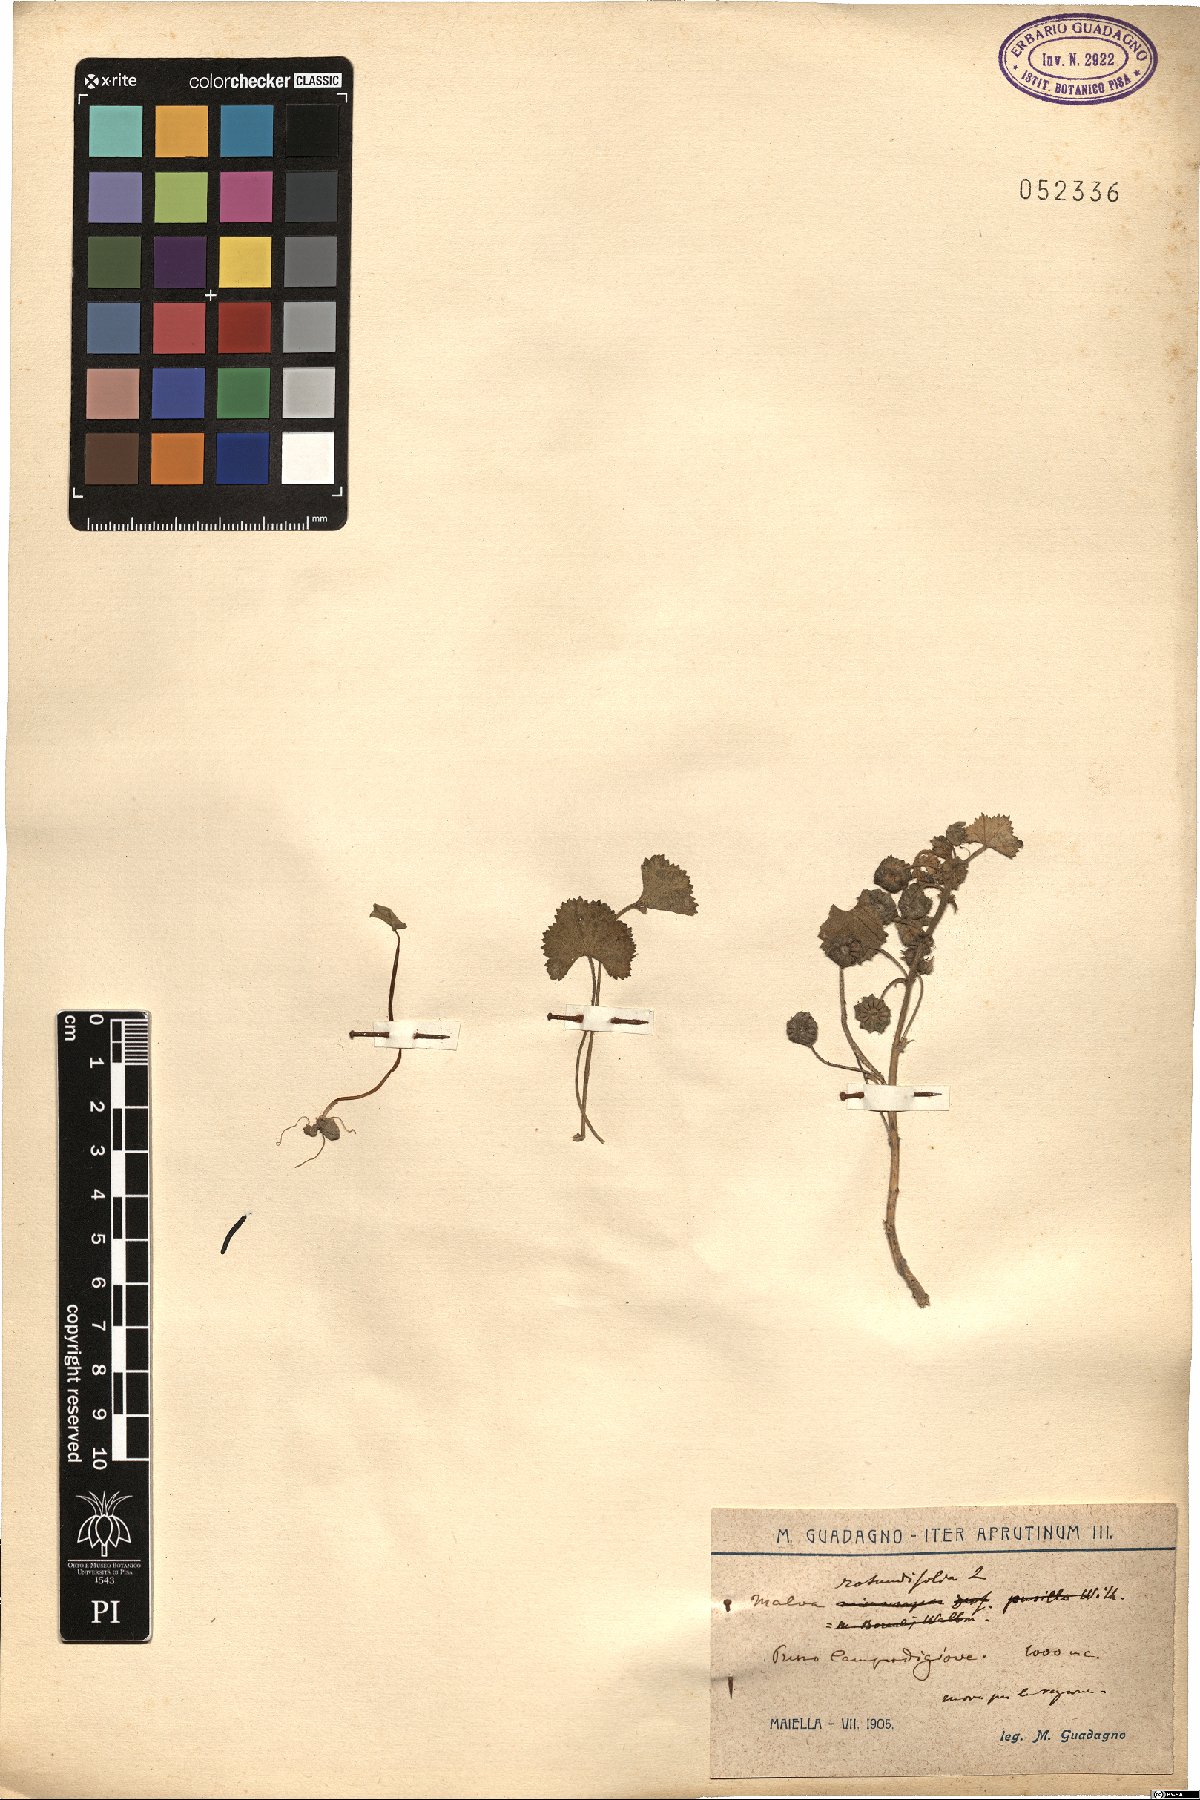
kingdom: Plantae
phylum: Tracheophyta
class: Magnoliopsida
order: Malvales
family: Malvaceae
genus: Malva
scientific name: Malva pusilla
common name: Small mallow
